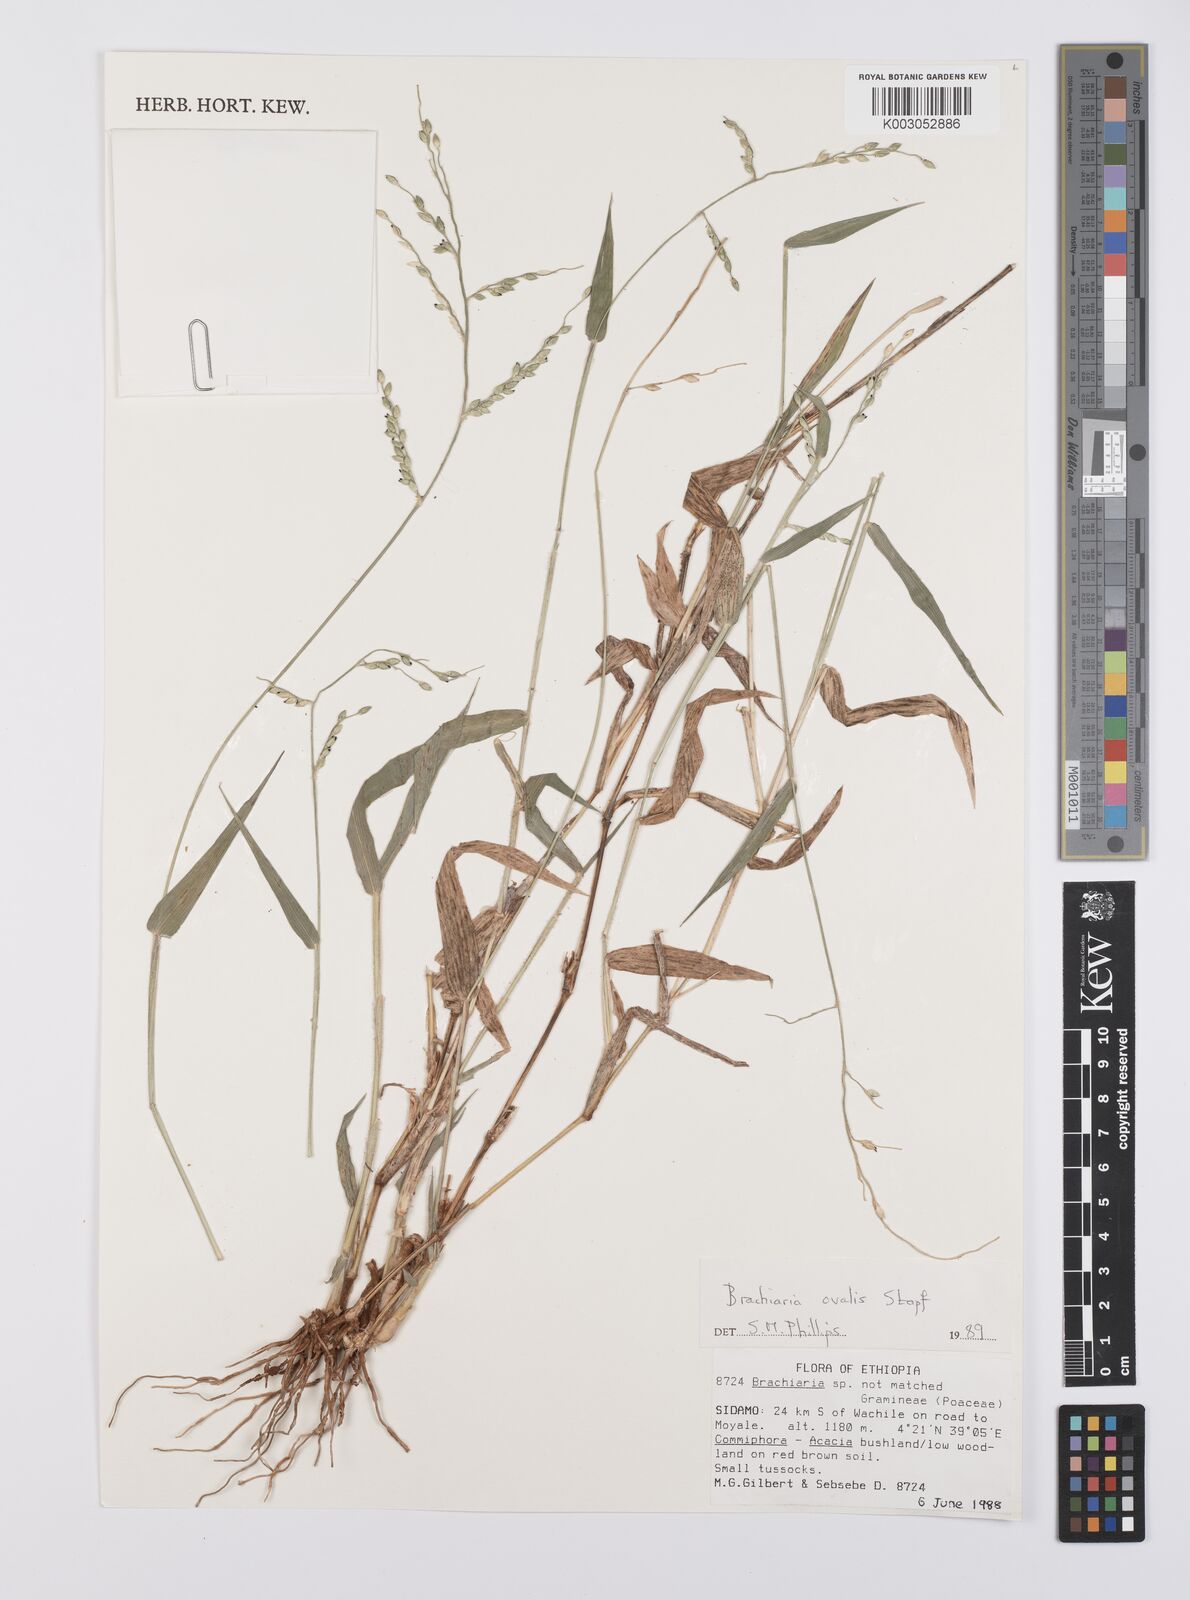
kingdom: Plantae
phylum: Tracheophyta
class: Liliopsida
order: Poales
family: Poaceae
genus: Urochloa
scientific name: Urochloa ovalis
